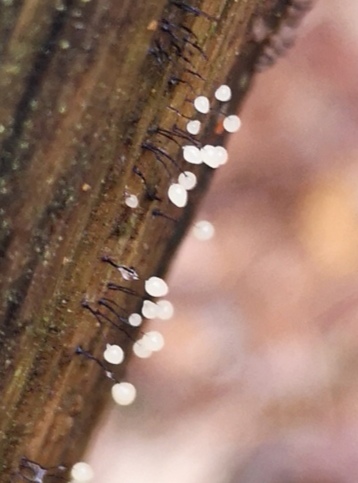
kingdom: Protozoa
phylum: Mycetozoa
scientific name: Mycetozoa
